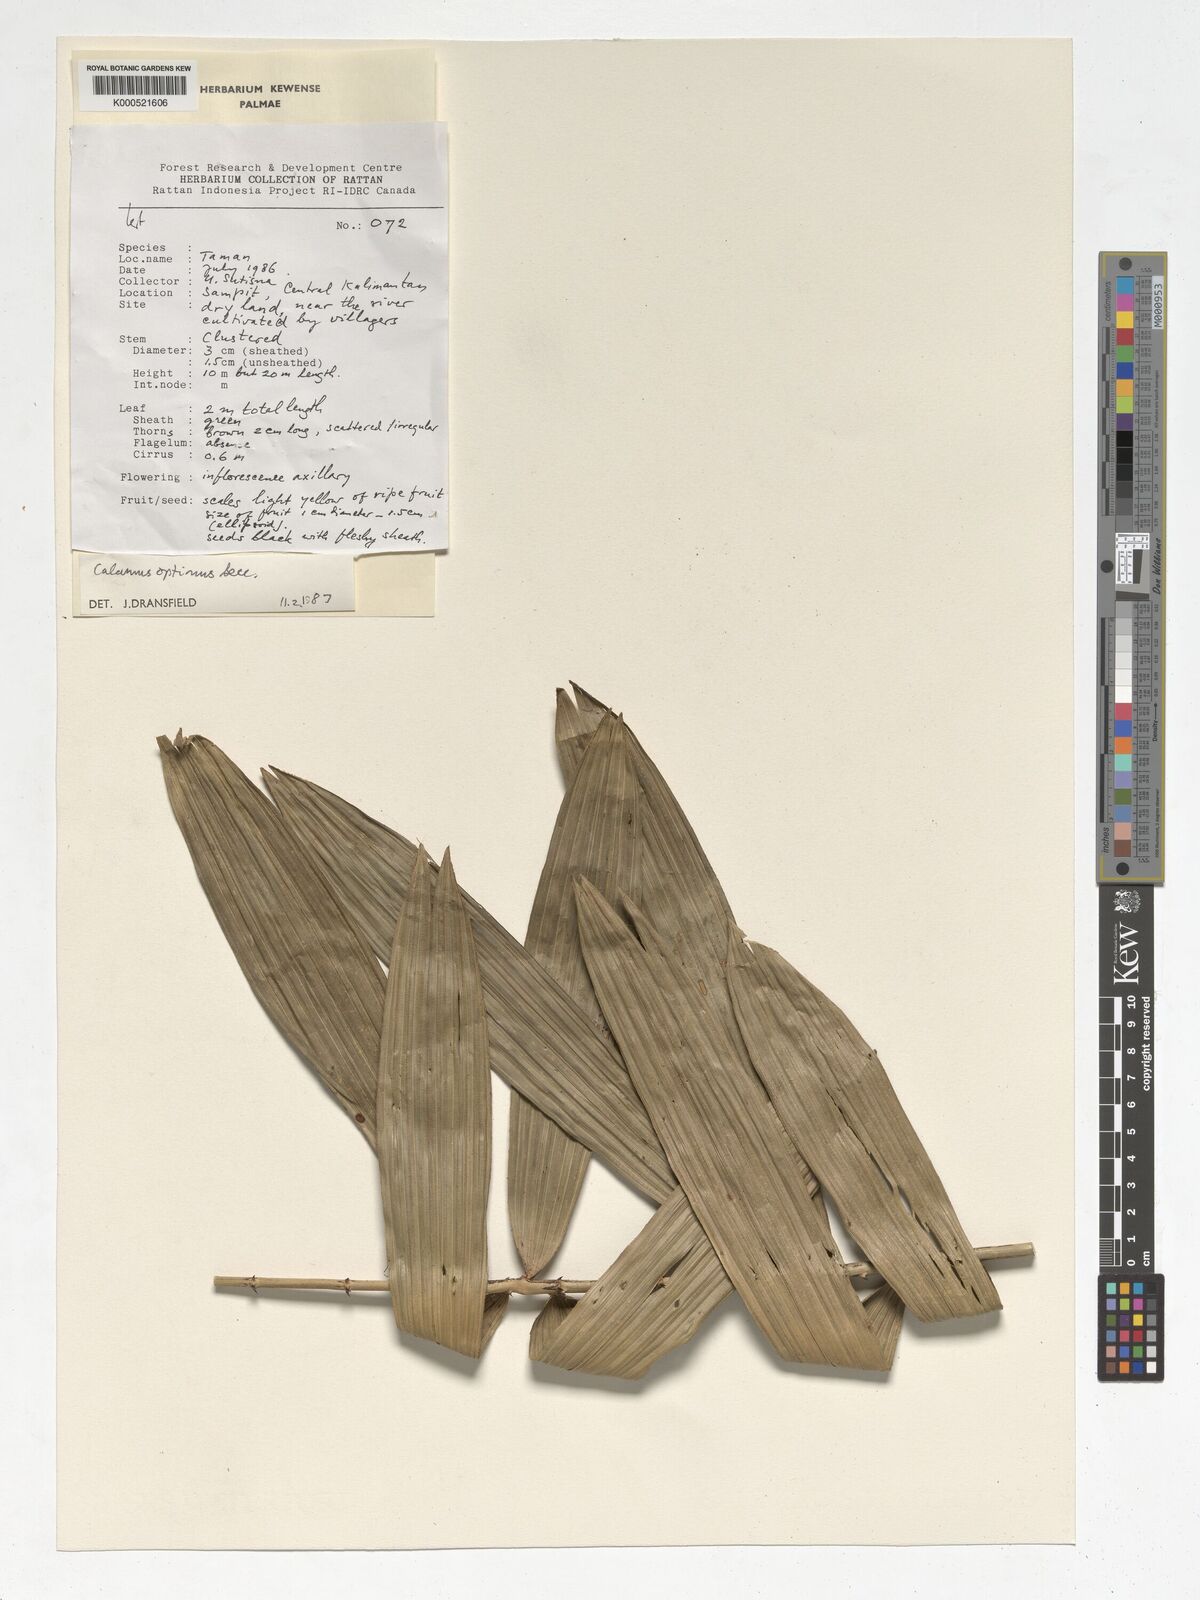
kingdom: Plantae
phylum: Tracheophyta
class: Liliopsida
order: Arecales
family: Arecaceae
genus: Calamus
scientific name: Calamus optimus
